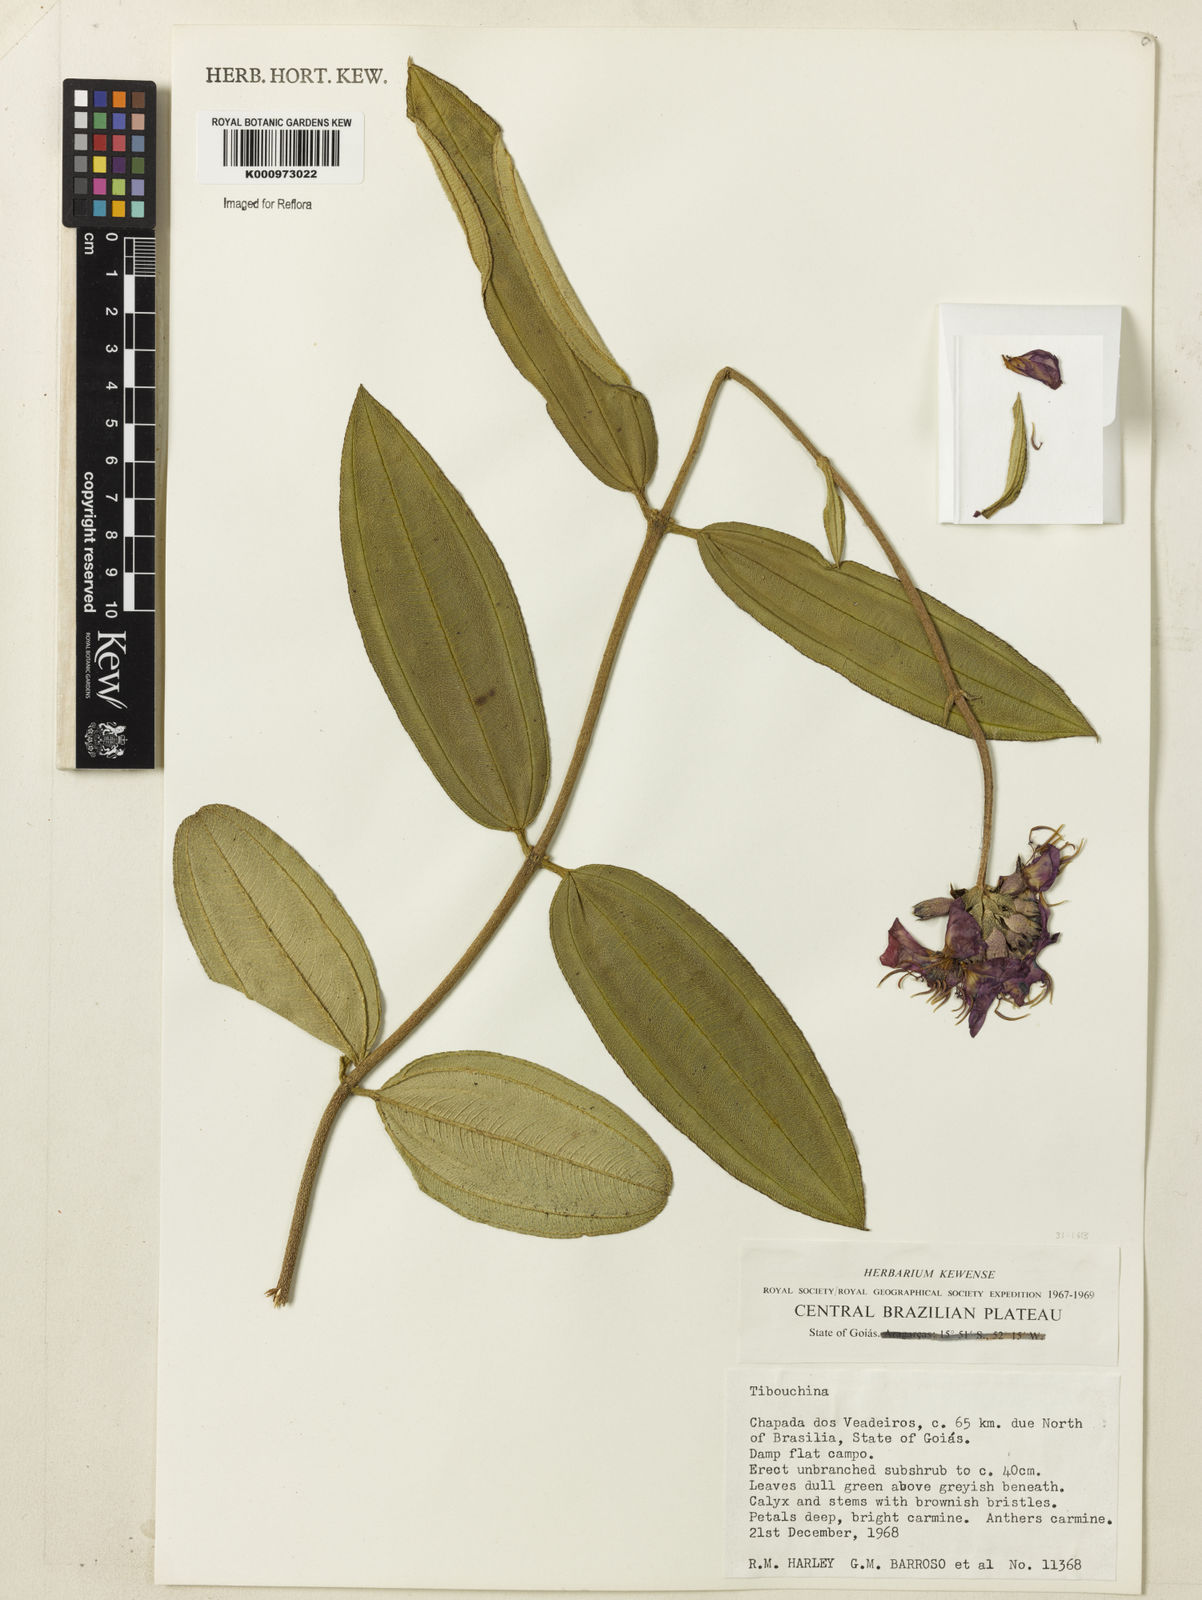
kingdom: Plantae
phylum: Tracheophyta
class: Magnoliopsida
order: Myrtales
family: Melastomataceae
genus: Tibouchina
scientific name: Tibouchina
